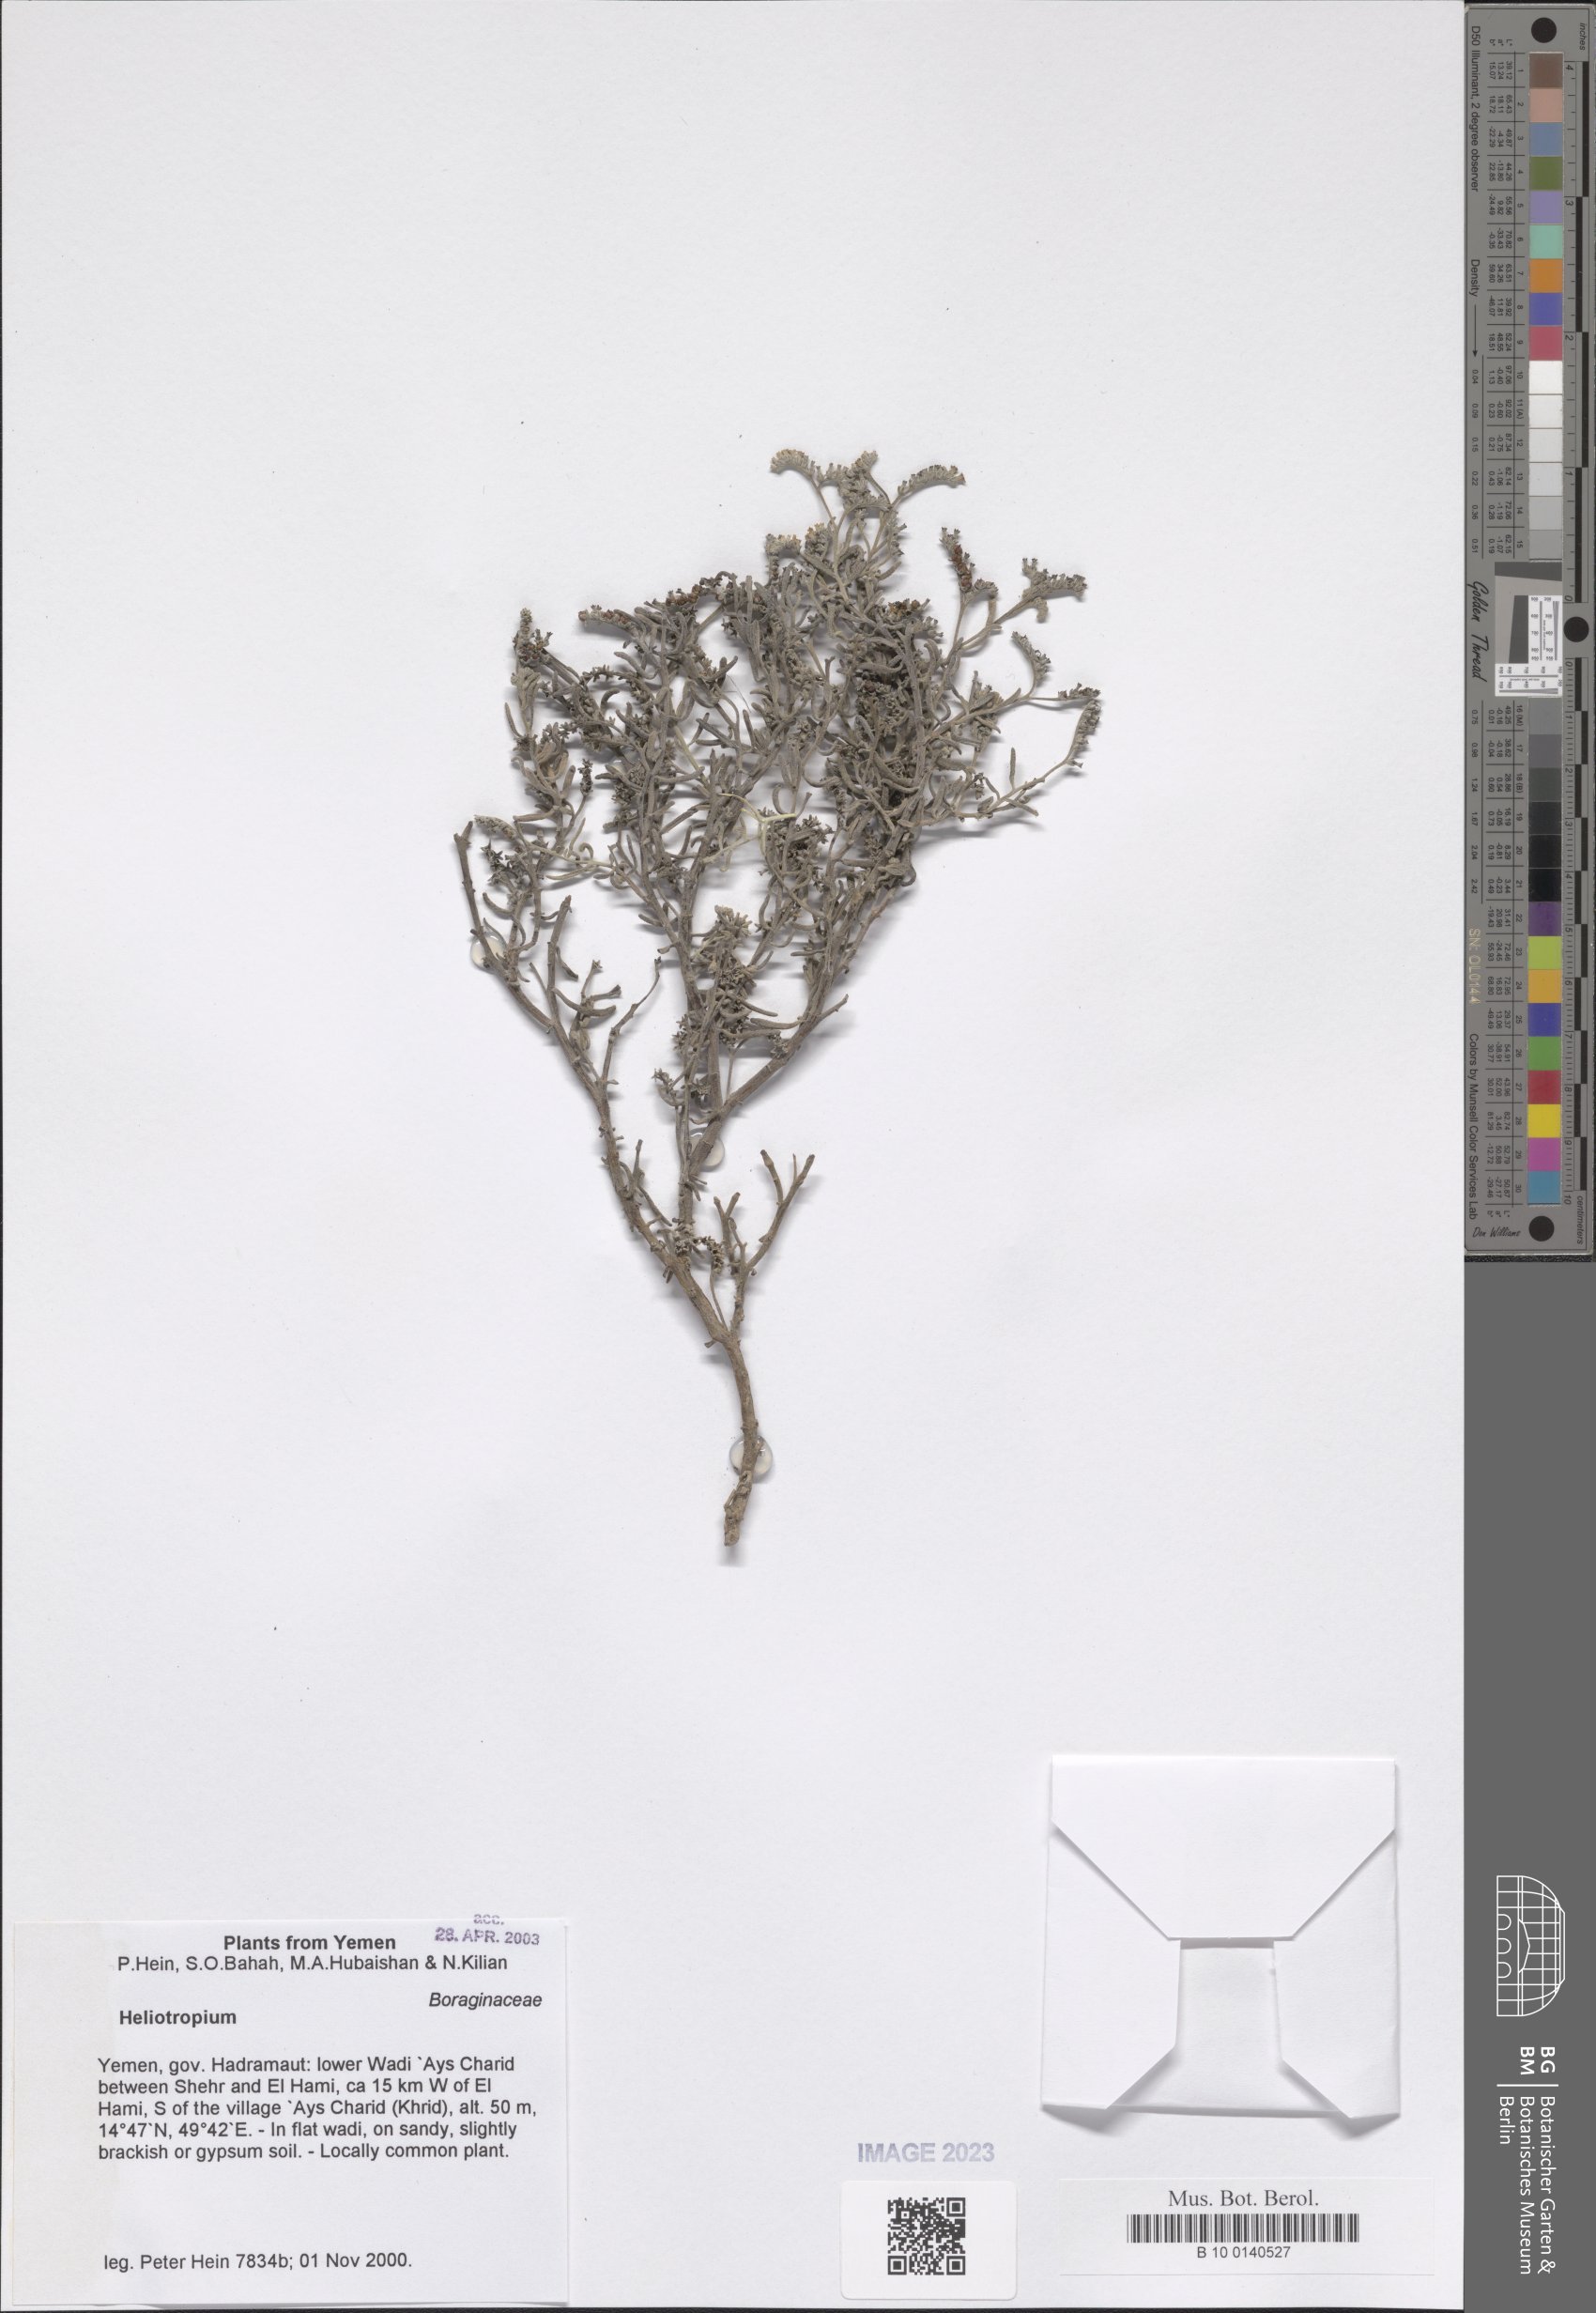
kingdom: Plantae
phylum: Tracheophyta
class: Magnoliopsida
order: Boraginales
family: Heliotropiaceae
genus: Heliotropium
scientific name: Heliotropium
